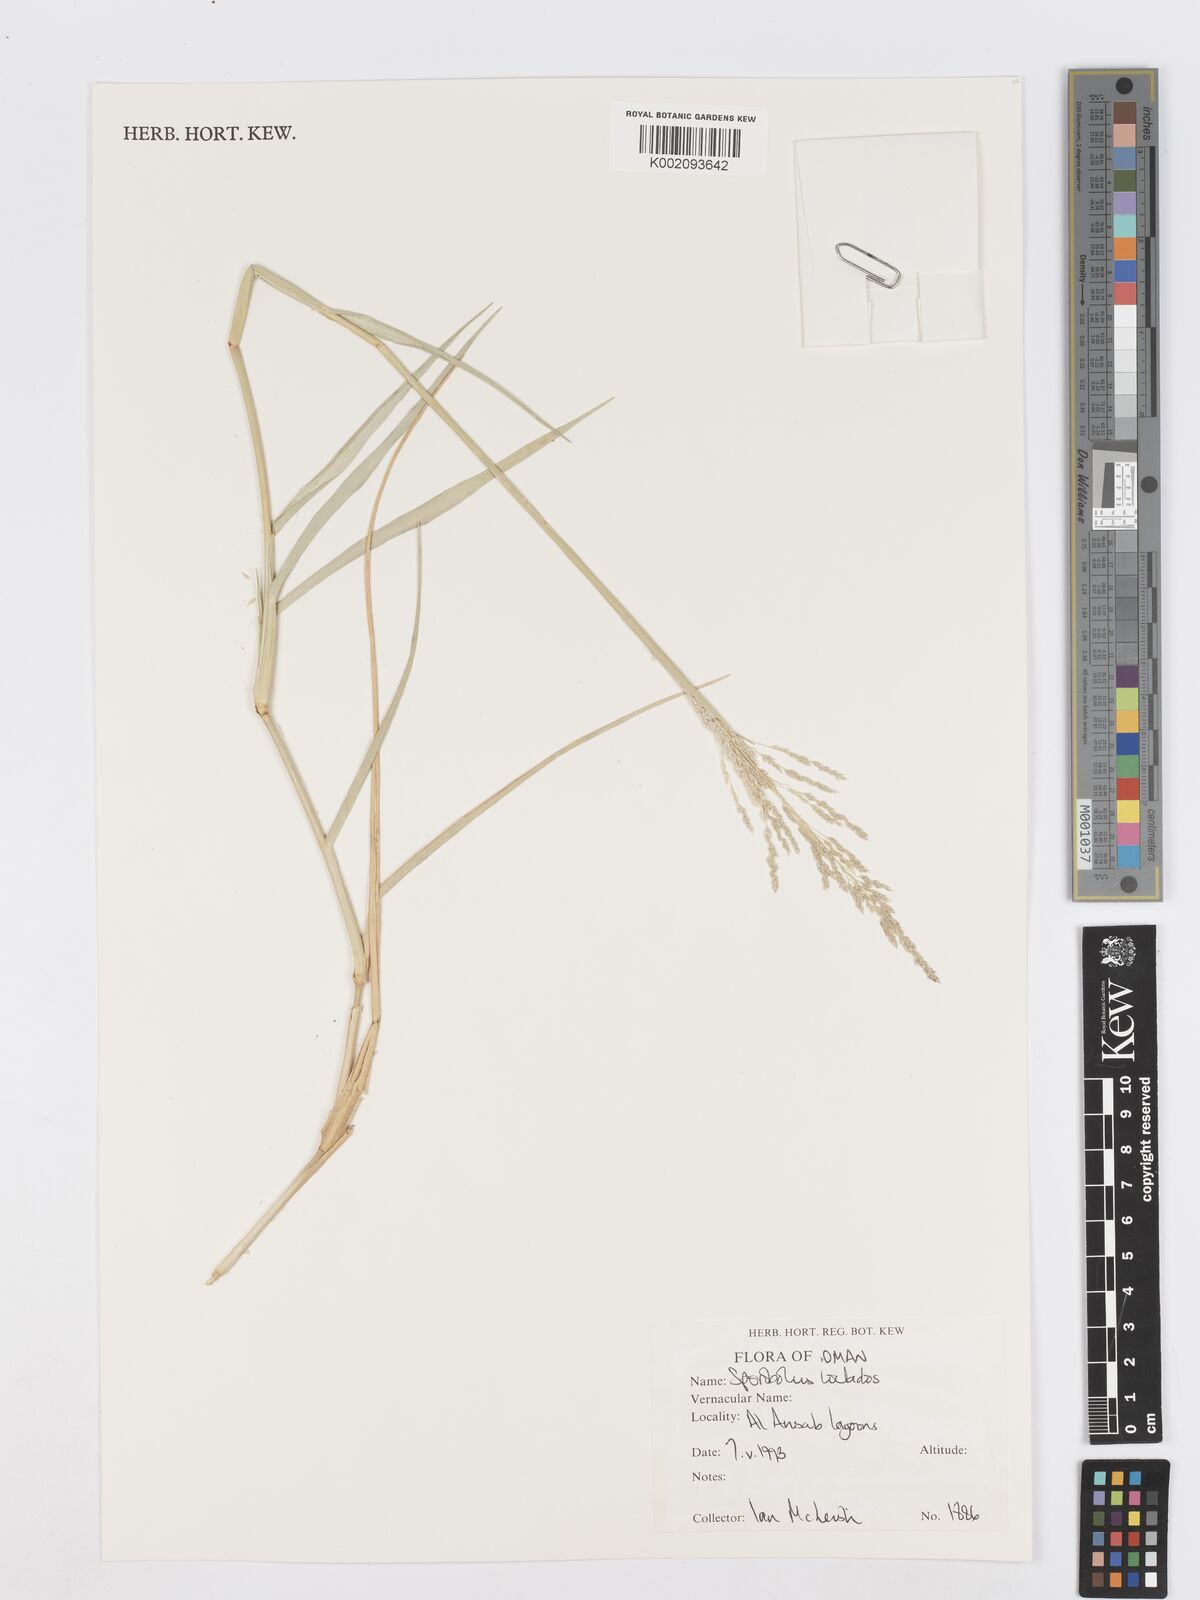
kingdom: Plantae
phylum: Tracheophyta
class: Liliopsida
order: Poales
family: Poaceae
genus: Sporobolus
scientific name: Sporobolus ioclados
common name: Pan dropseed
